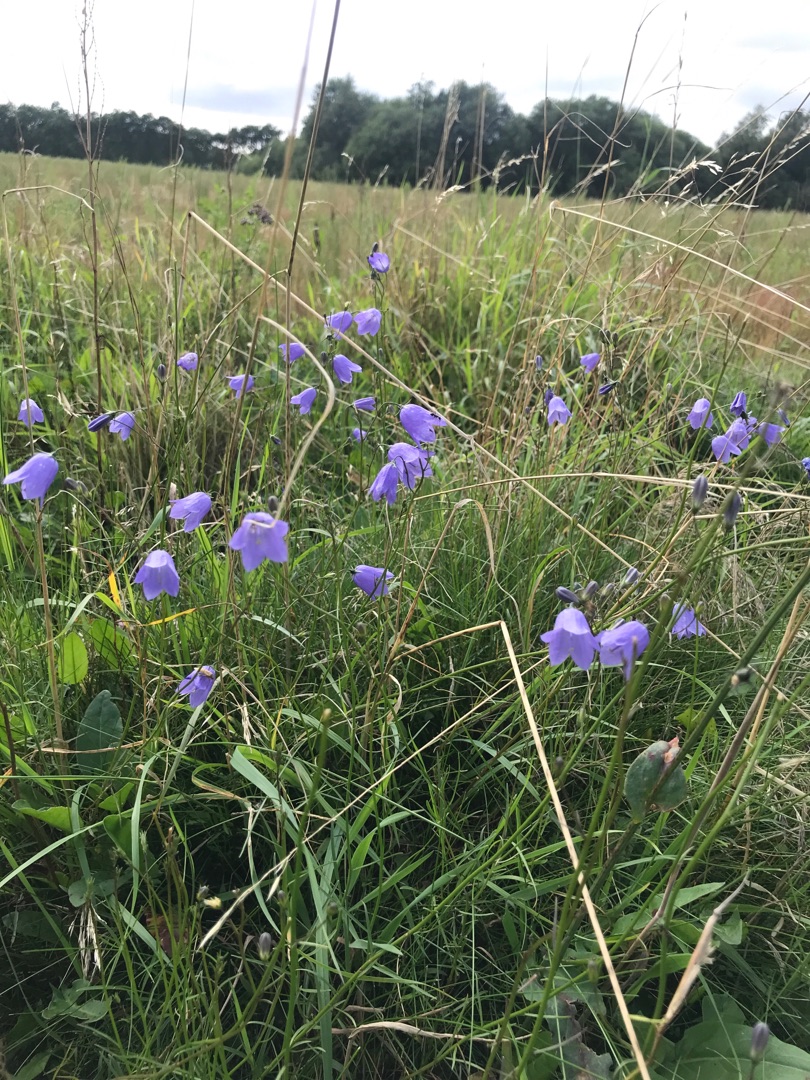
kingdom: Plantae
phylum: Tracheophyta
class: Magnoliopsida
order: Asterales
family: Campanulaceae
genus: Campanula
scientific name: Campanula rotundifolia
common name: Liden klokke
